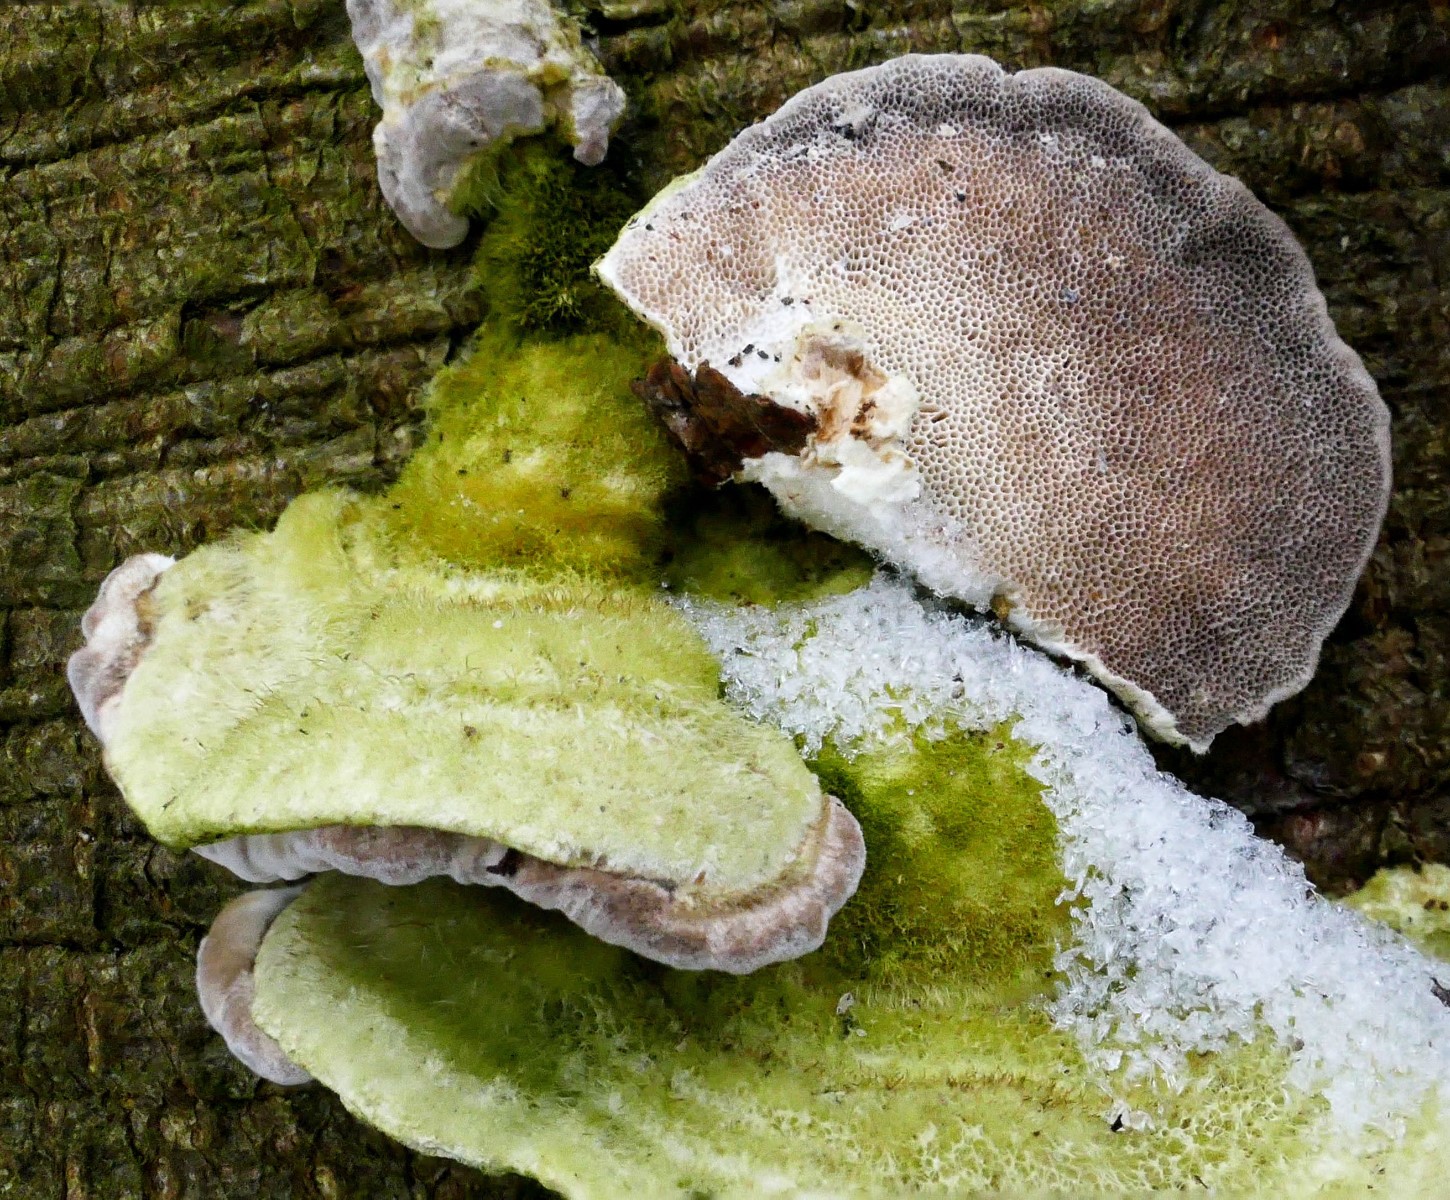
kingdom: Fungi
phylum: Basidiomycota
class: Agaricomycetes
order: Polyporales
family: Polyporaceae
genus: Trametes
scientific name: Trametes hirsuta
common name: håret læderporesvamp
